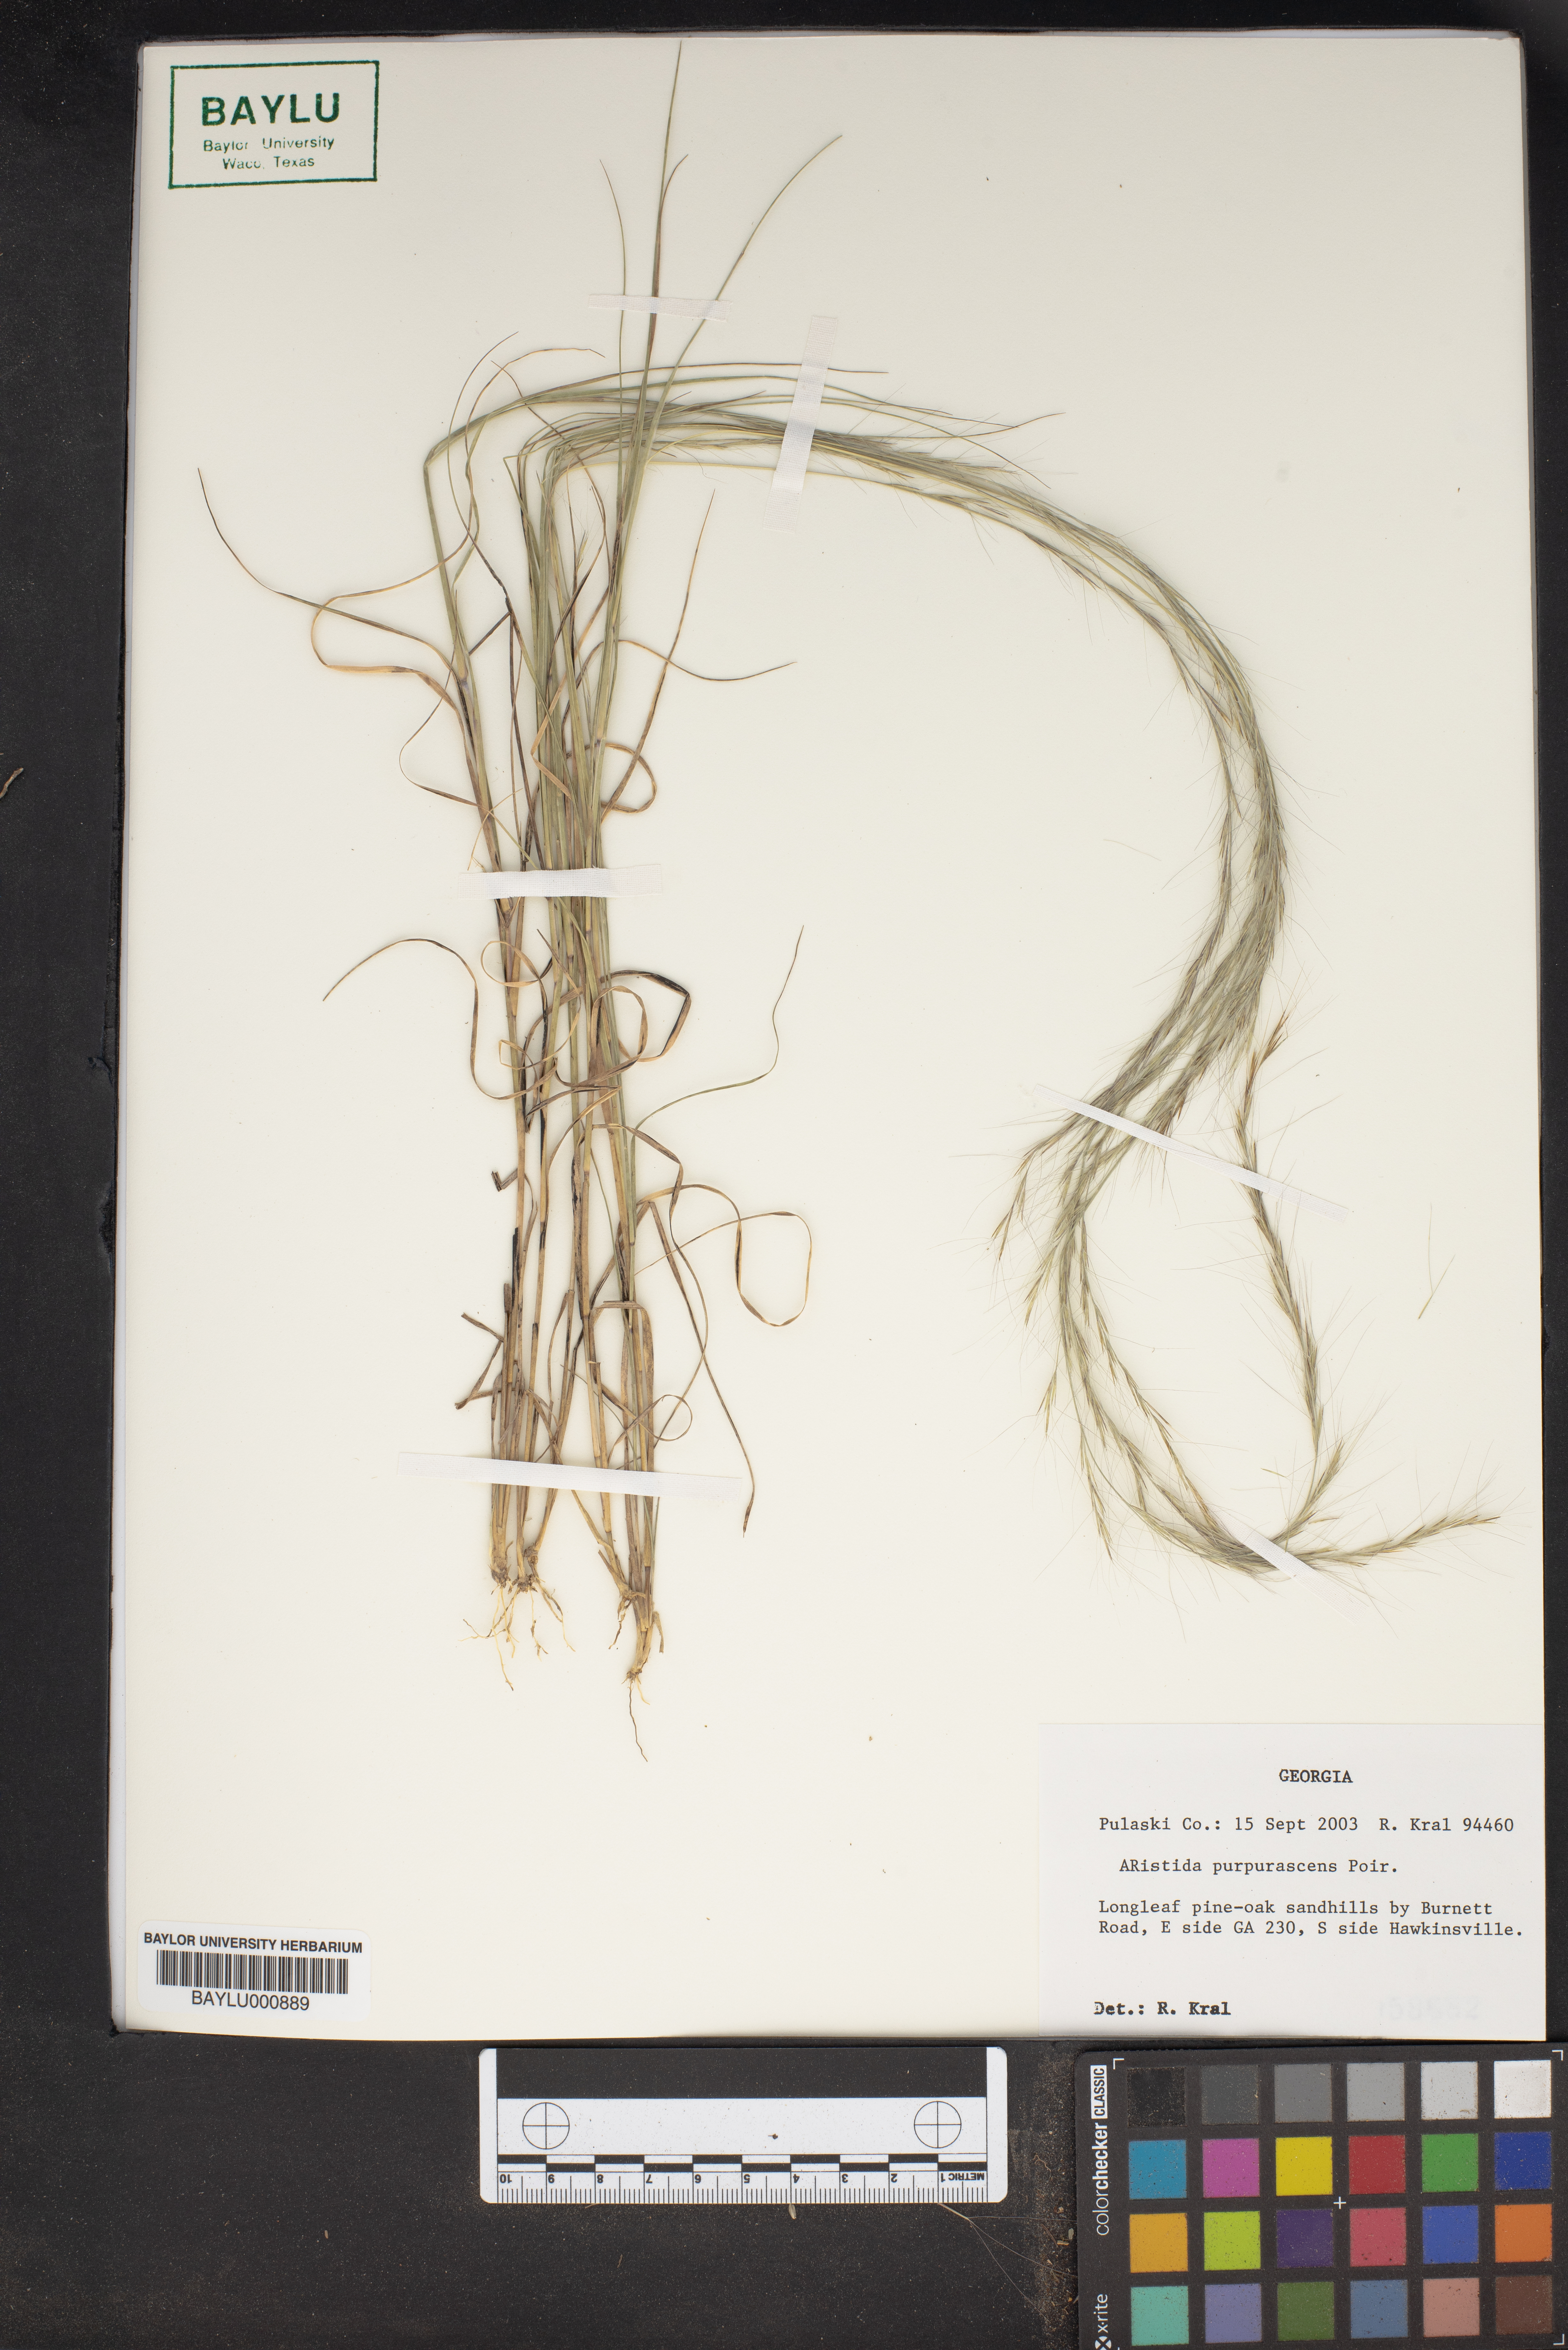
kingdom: Plantae
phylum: Tracheophyta
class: Liliopsida
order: Poales
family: Poaceae
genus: Aristida
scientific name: Aristida purpurascens
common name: Arrow-feather
